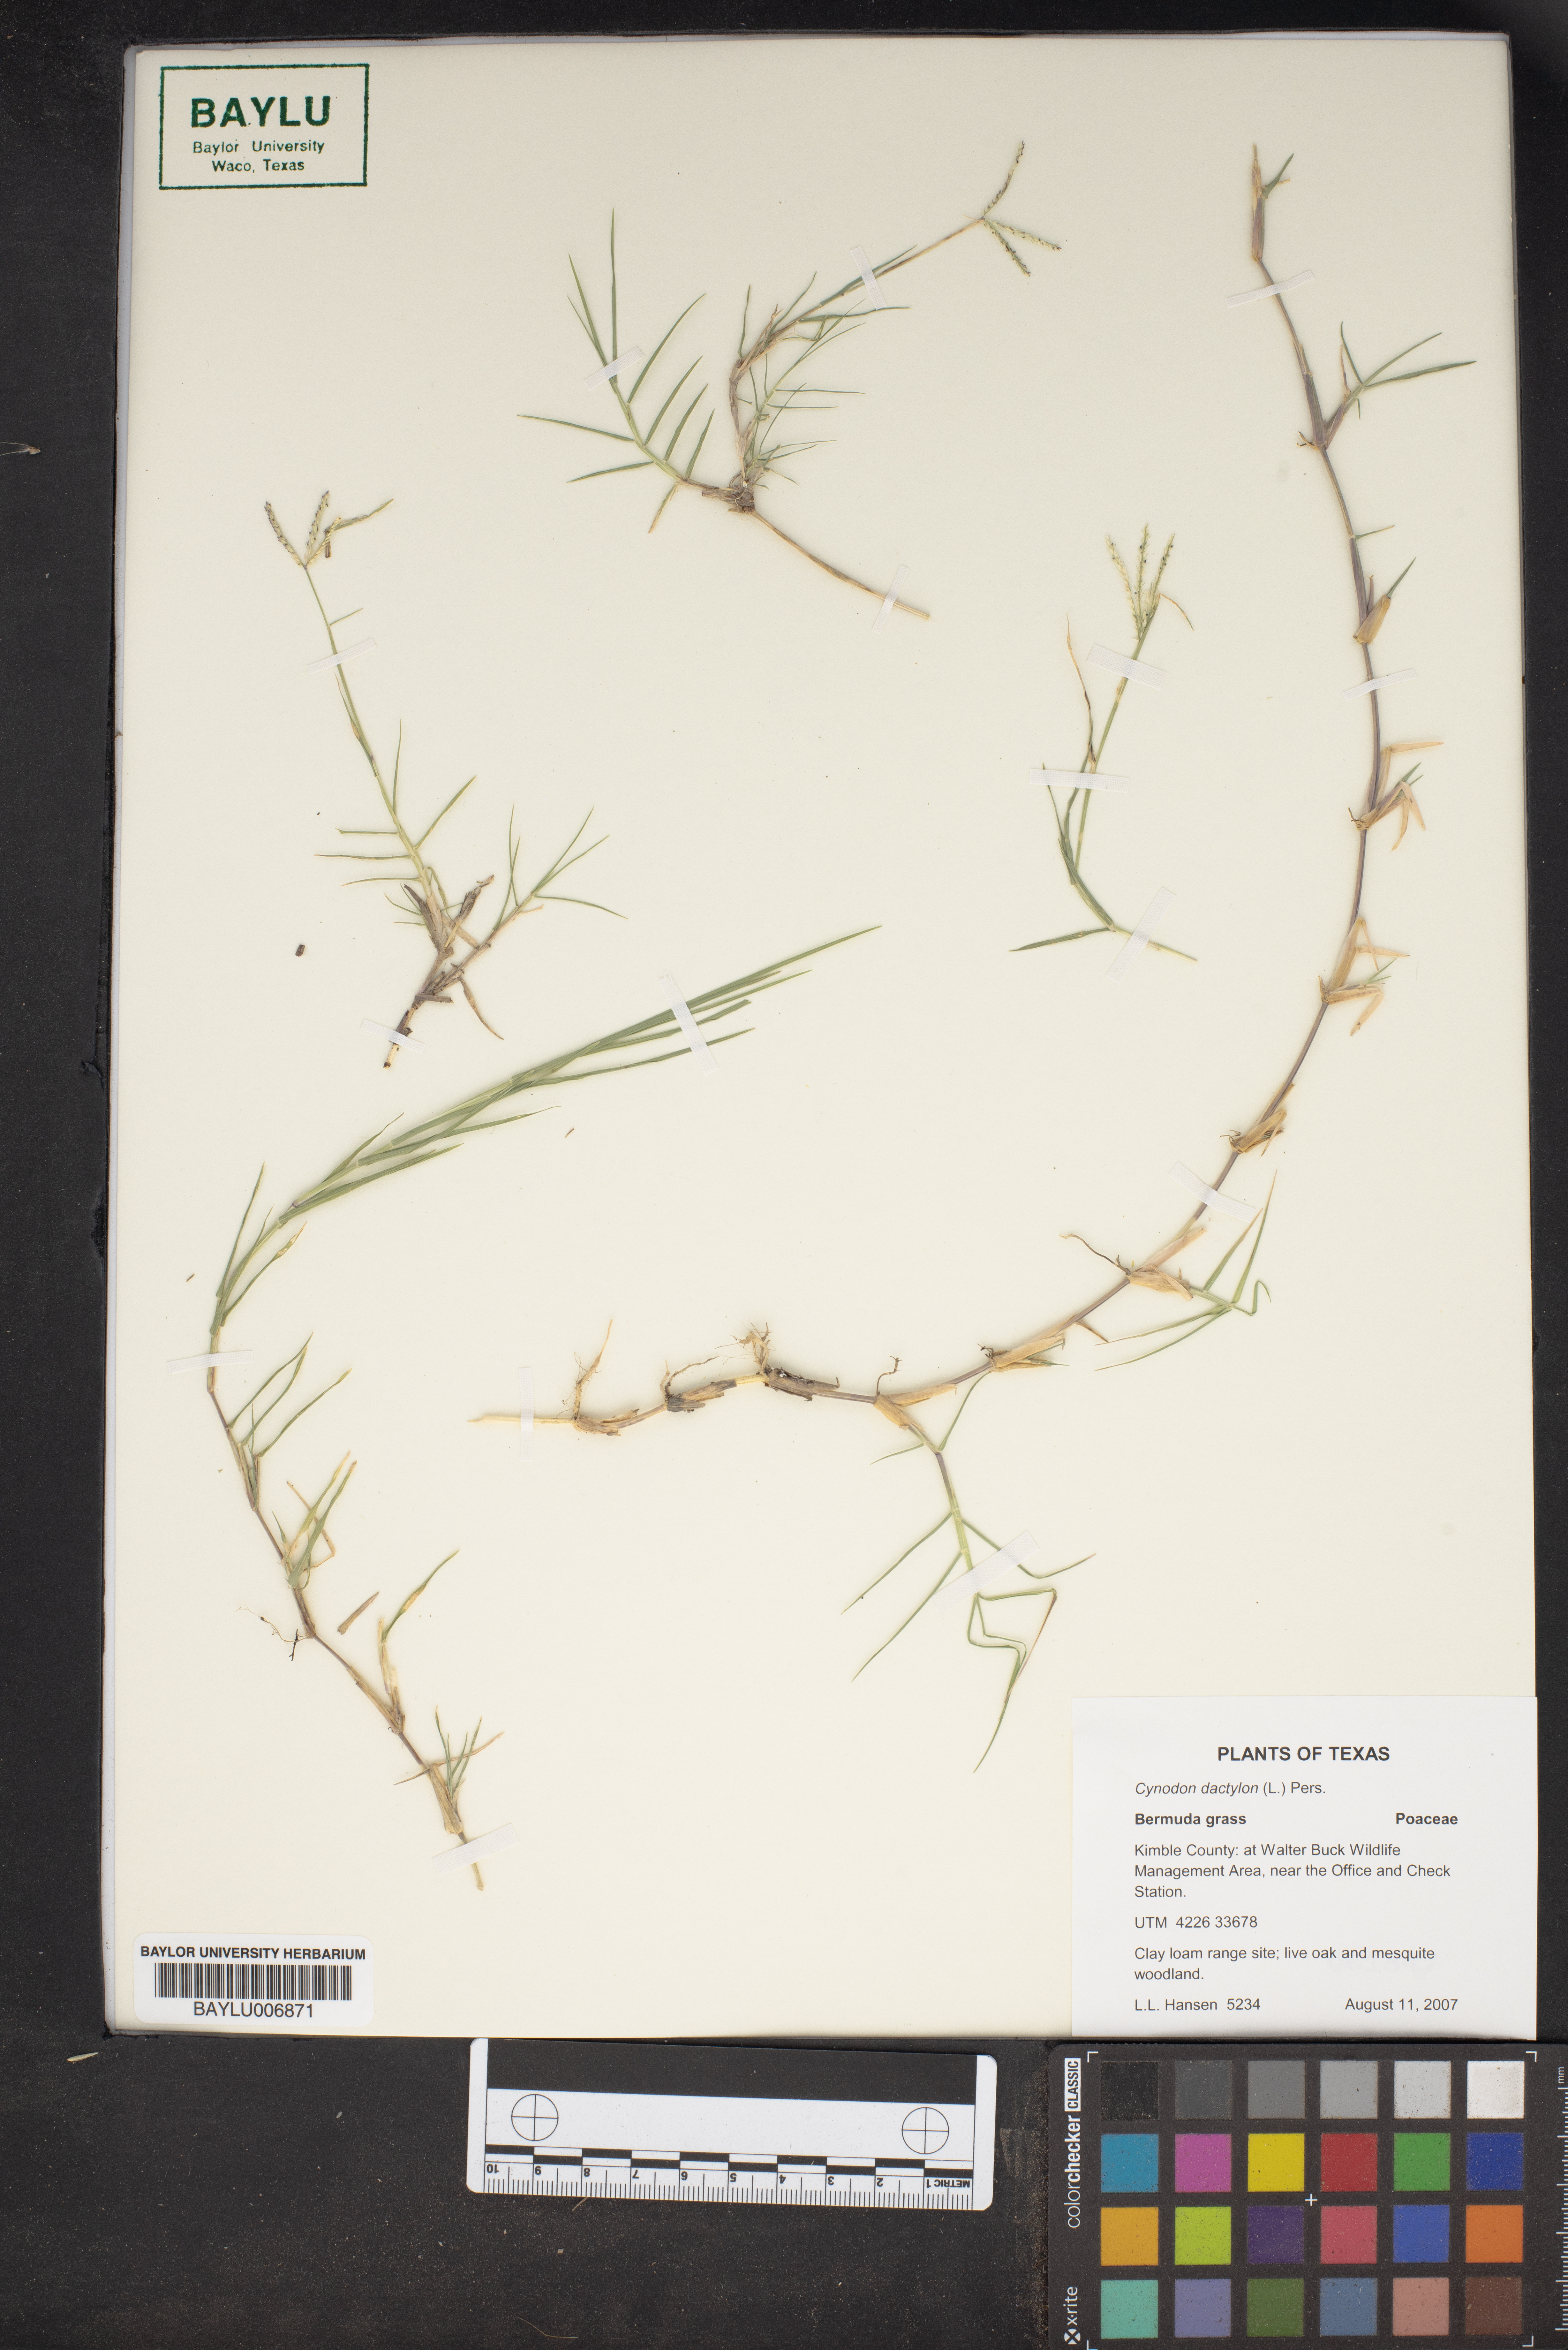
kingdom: Plantae
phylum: Tracheophyta
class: Liliopsida
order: Poales
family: Poaceae
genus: Cynodon
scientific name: Cynodon dactylon
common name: Bermuda grass
